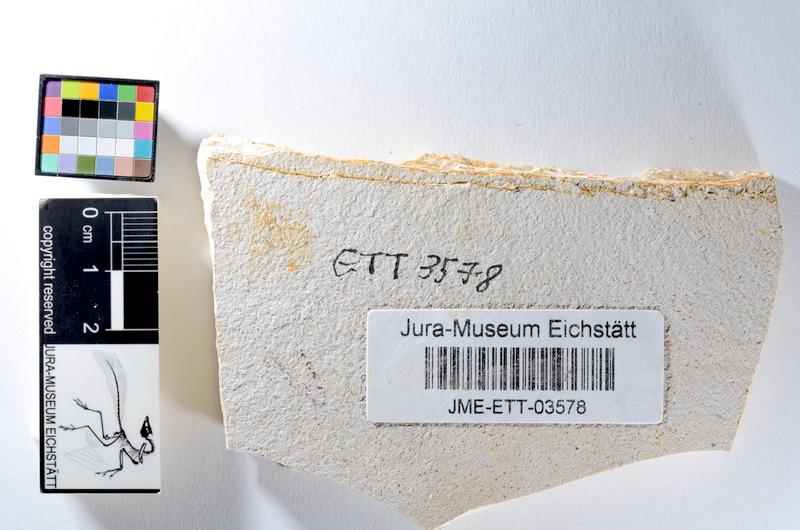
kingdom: Animalia
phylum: Chordata
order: Salmoniformes
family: Orthogonikleithridae
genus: Orthogonikleithrus
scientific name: Orthogonikleithrus hoelli
